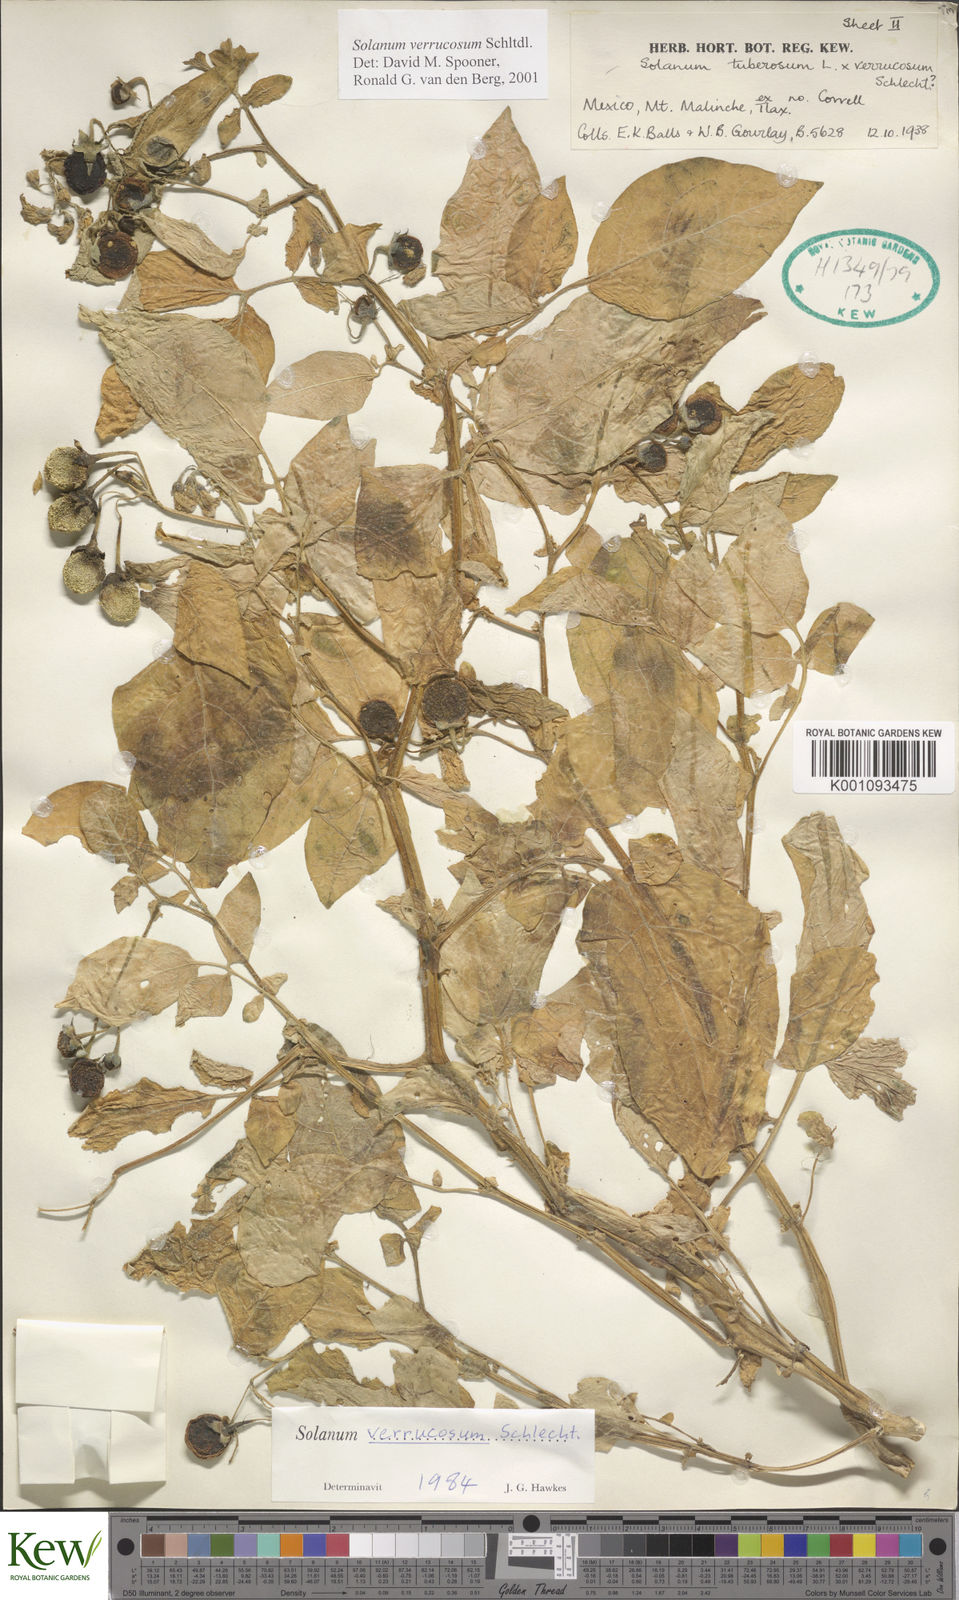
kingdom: Plantae
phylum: Tracheophyta
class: Magnoliopsida
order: Solanales
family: Solanaceae
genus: Solanum
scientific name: Solanum verrucosum
